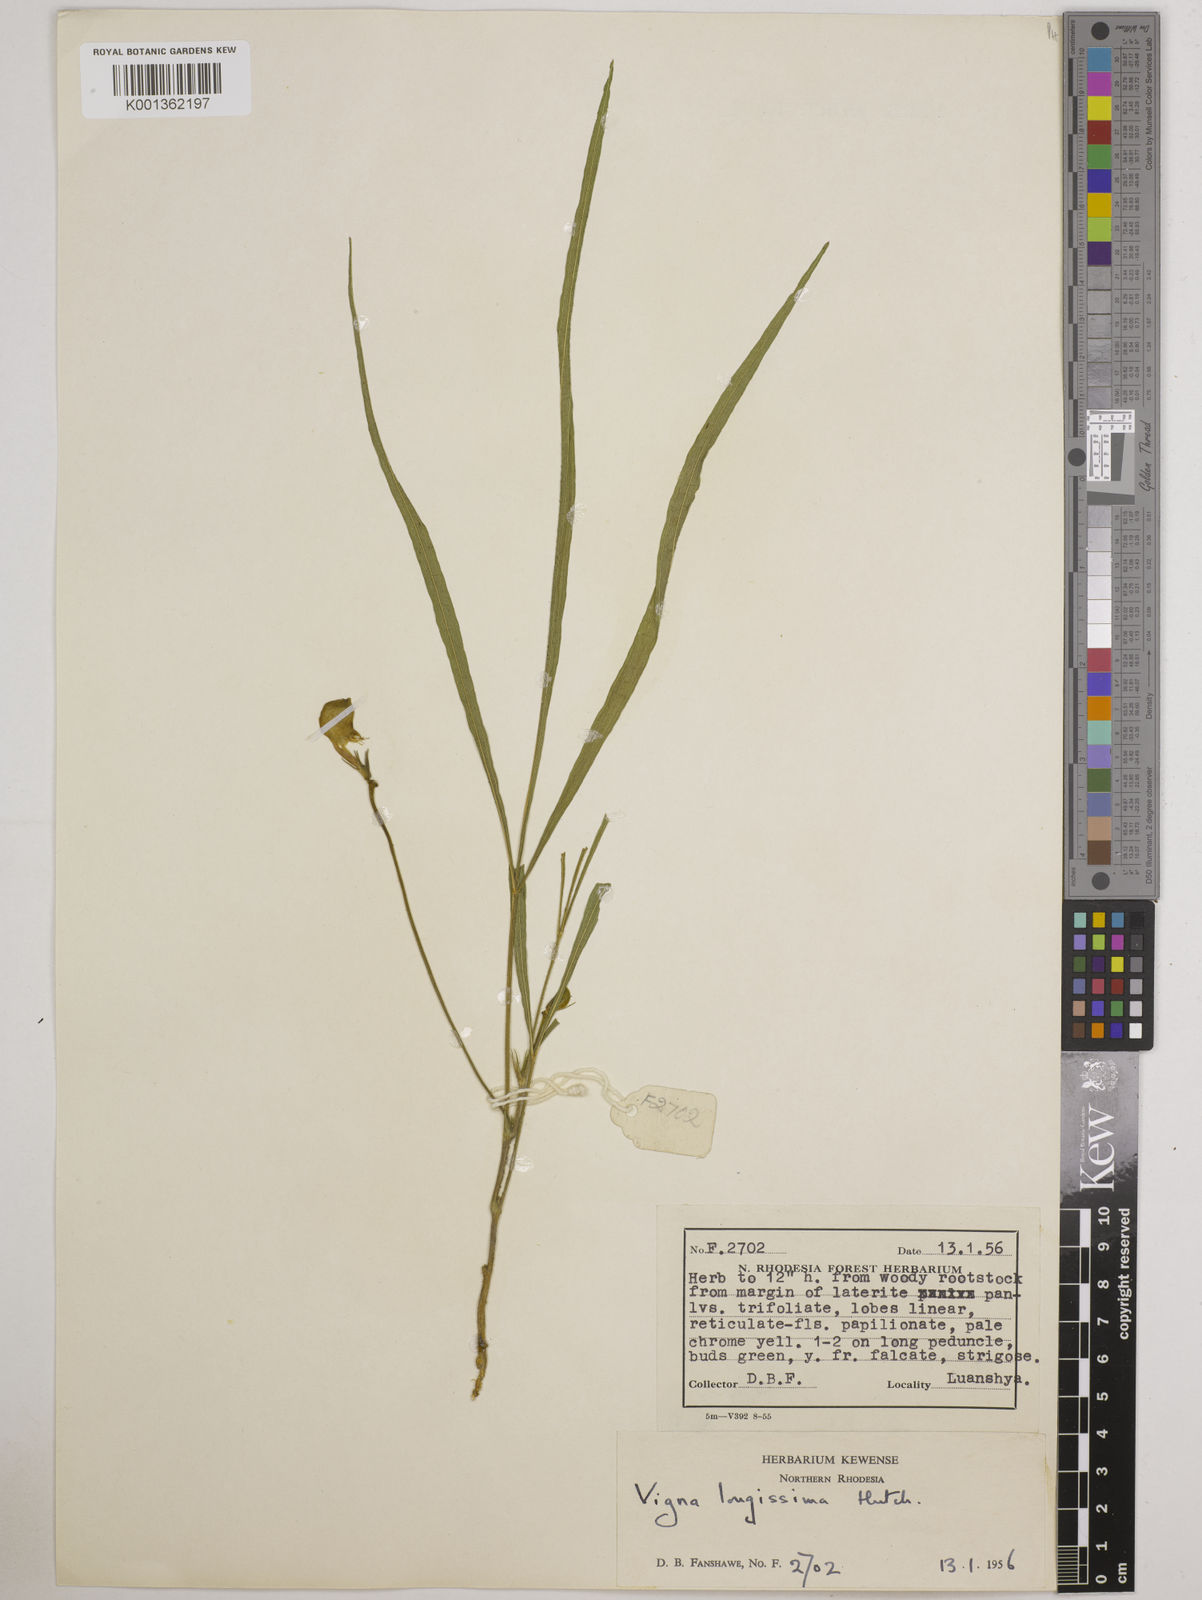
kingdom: Plantae
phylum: Tracheophyta
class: Magnoliopsida
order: Fabales
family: Fabaceae
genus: Vigna
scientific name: Vigna longissima
